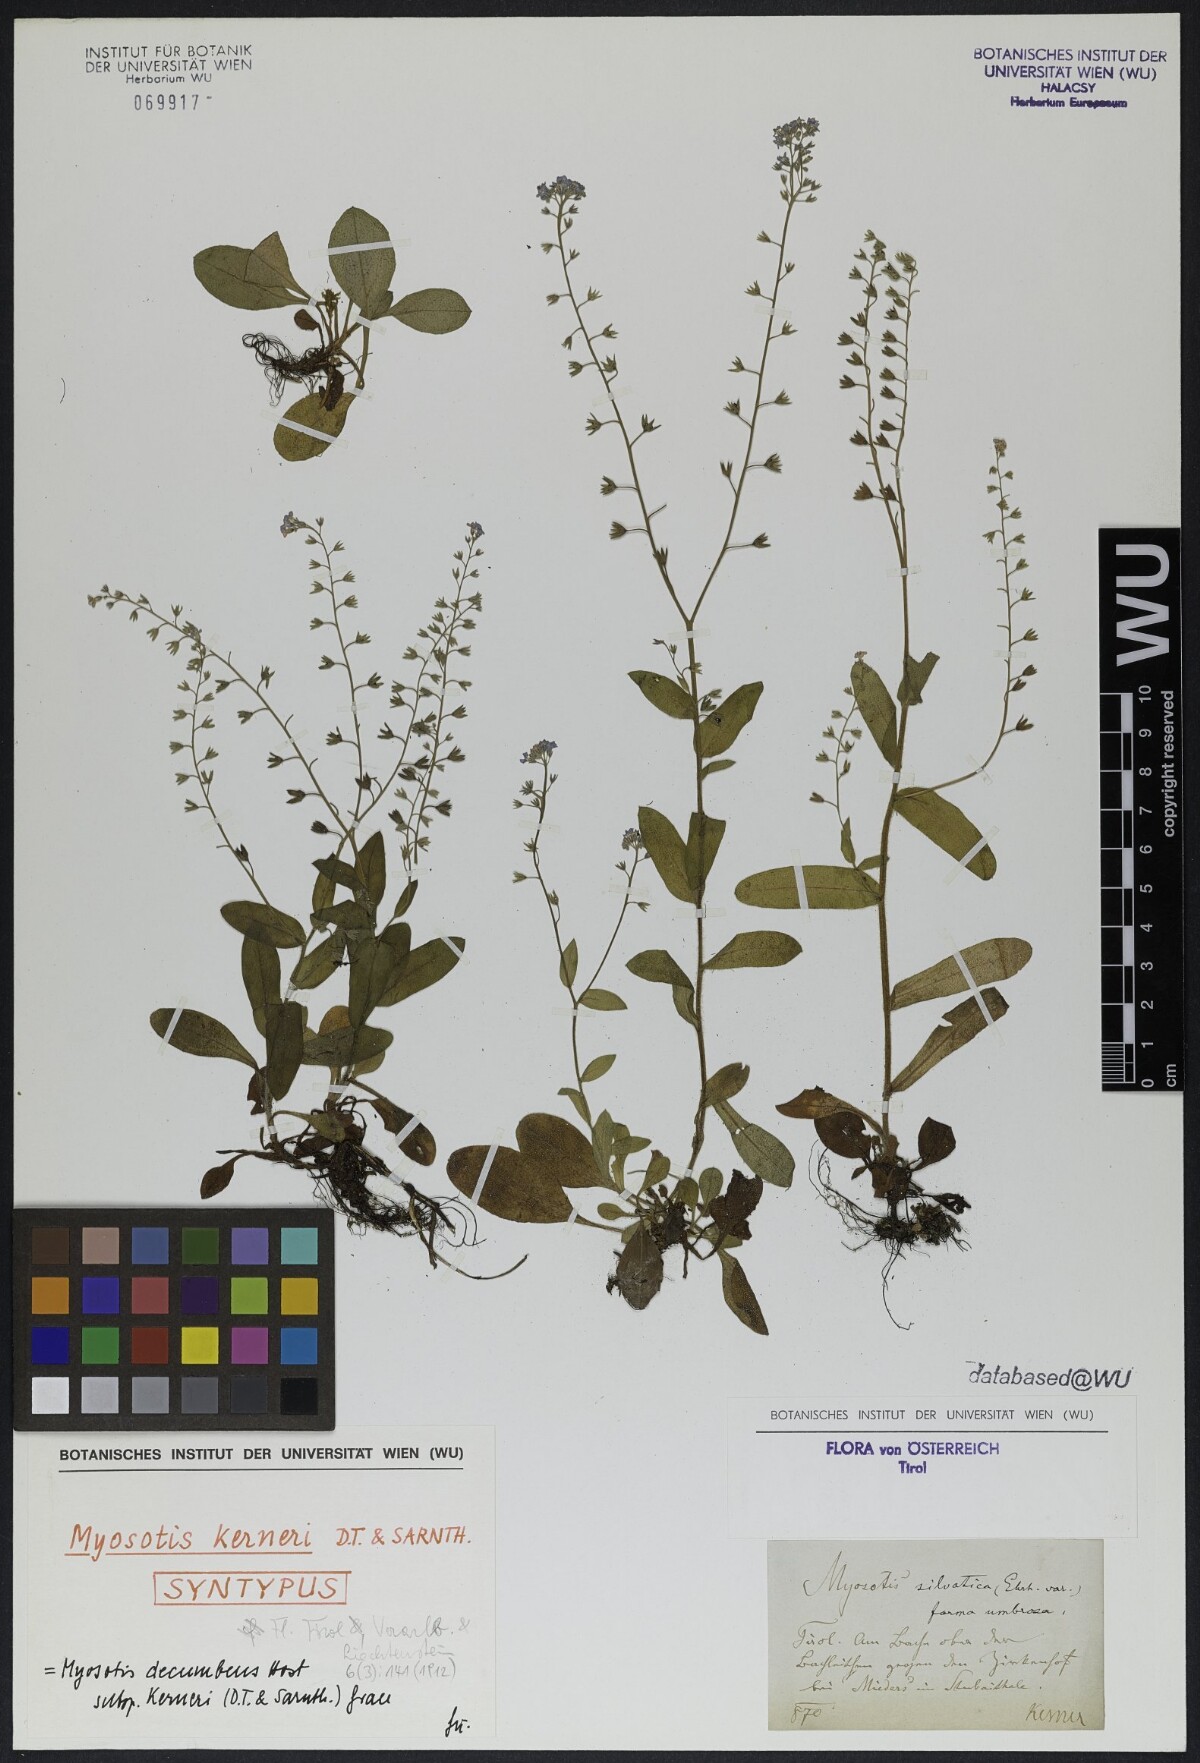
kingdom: Plantae
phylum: Tracheophyta
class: Magnoliopsida
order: Boraginales
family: Boraginaceae
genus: Myosotis
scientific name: Myosotis decumbens
